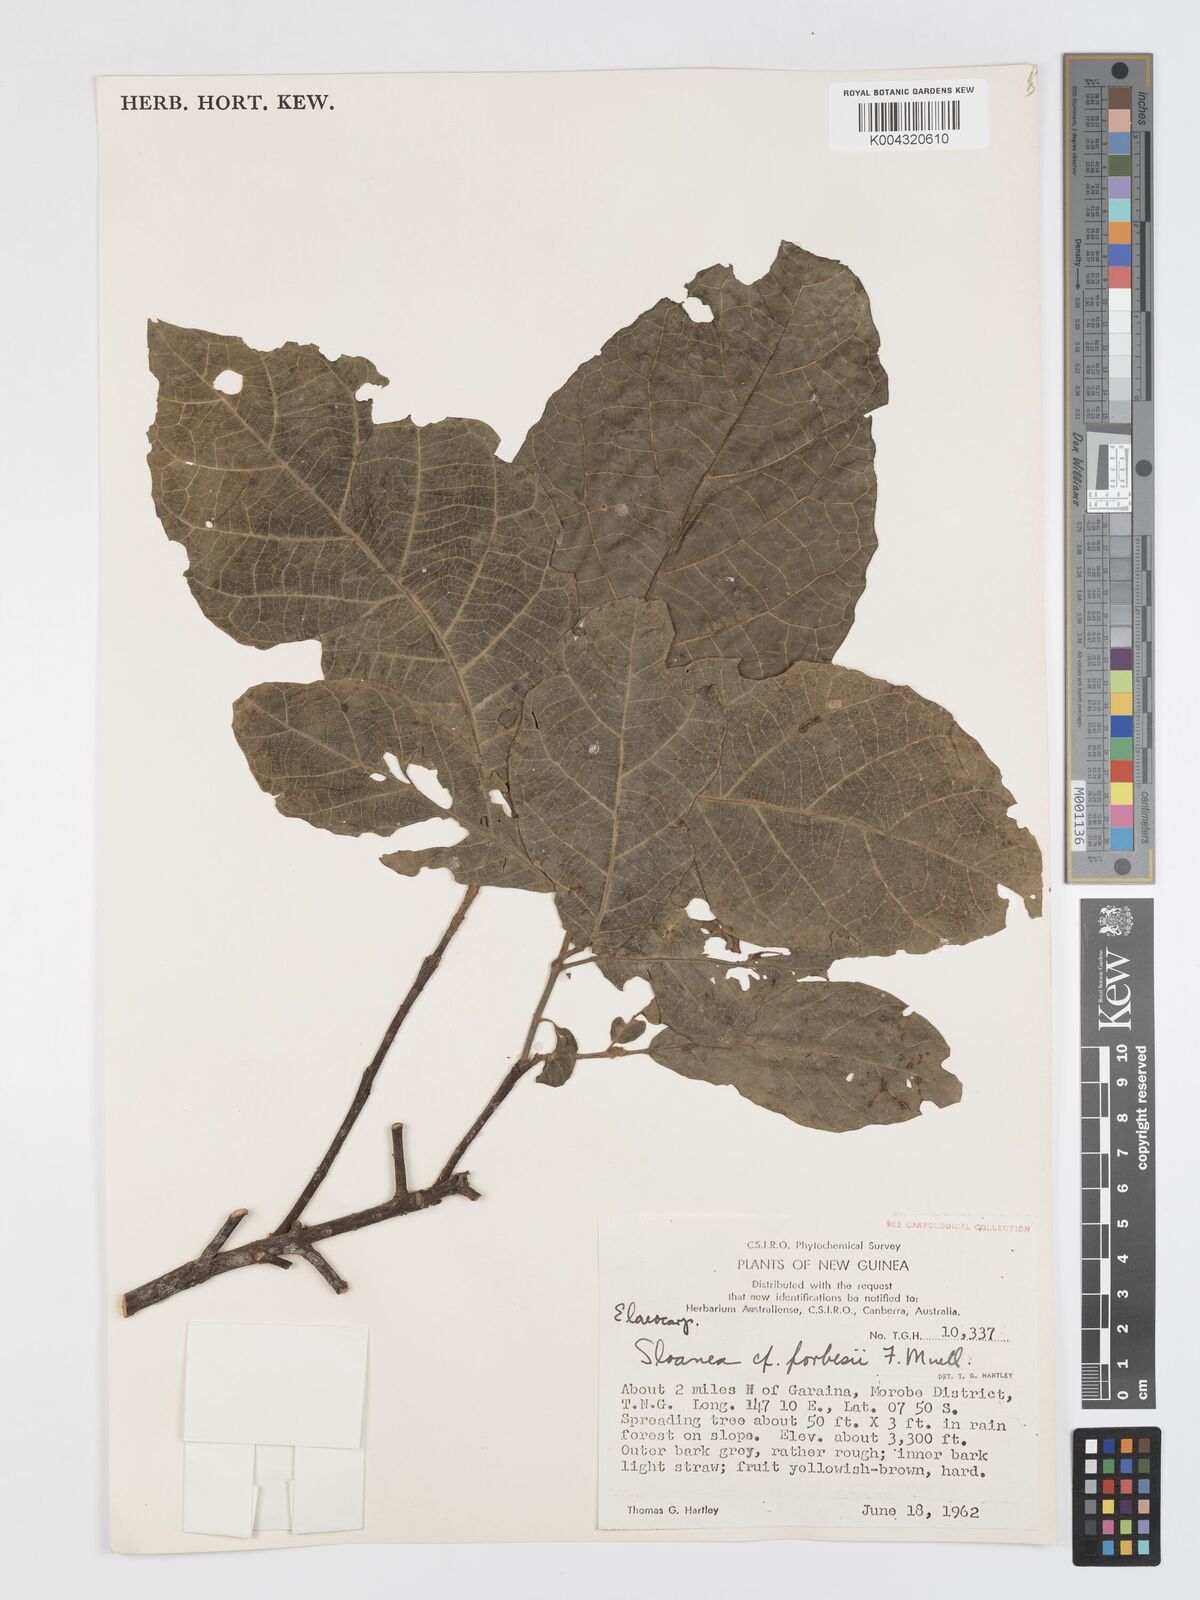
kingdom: Plantae
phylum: Tracheophyta
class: Magnoliopsida
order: Oxalidales
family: Elaeocarpaceae
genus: Sloanea
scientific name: Sloanea forbesii
